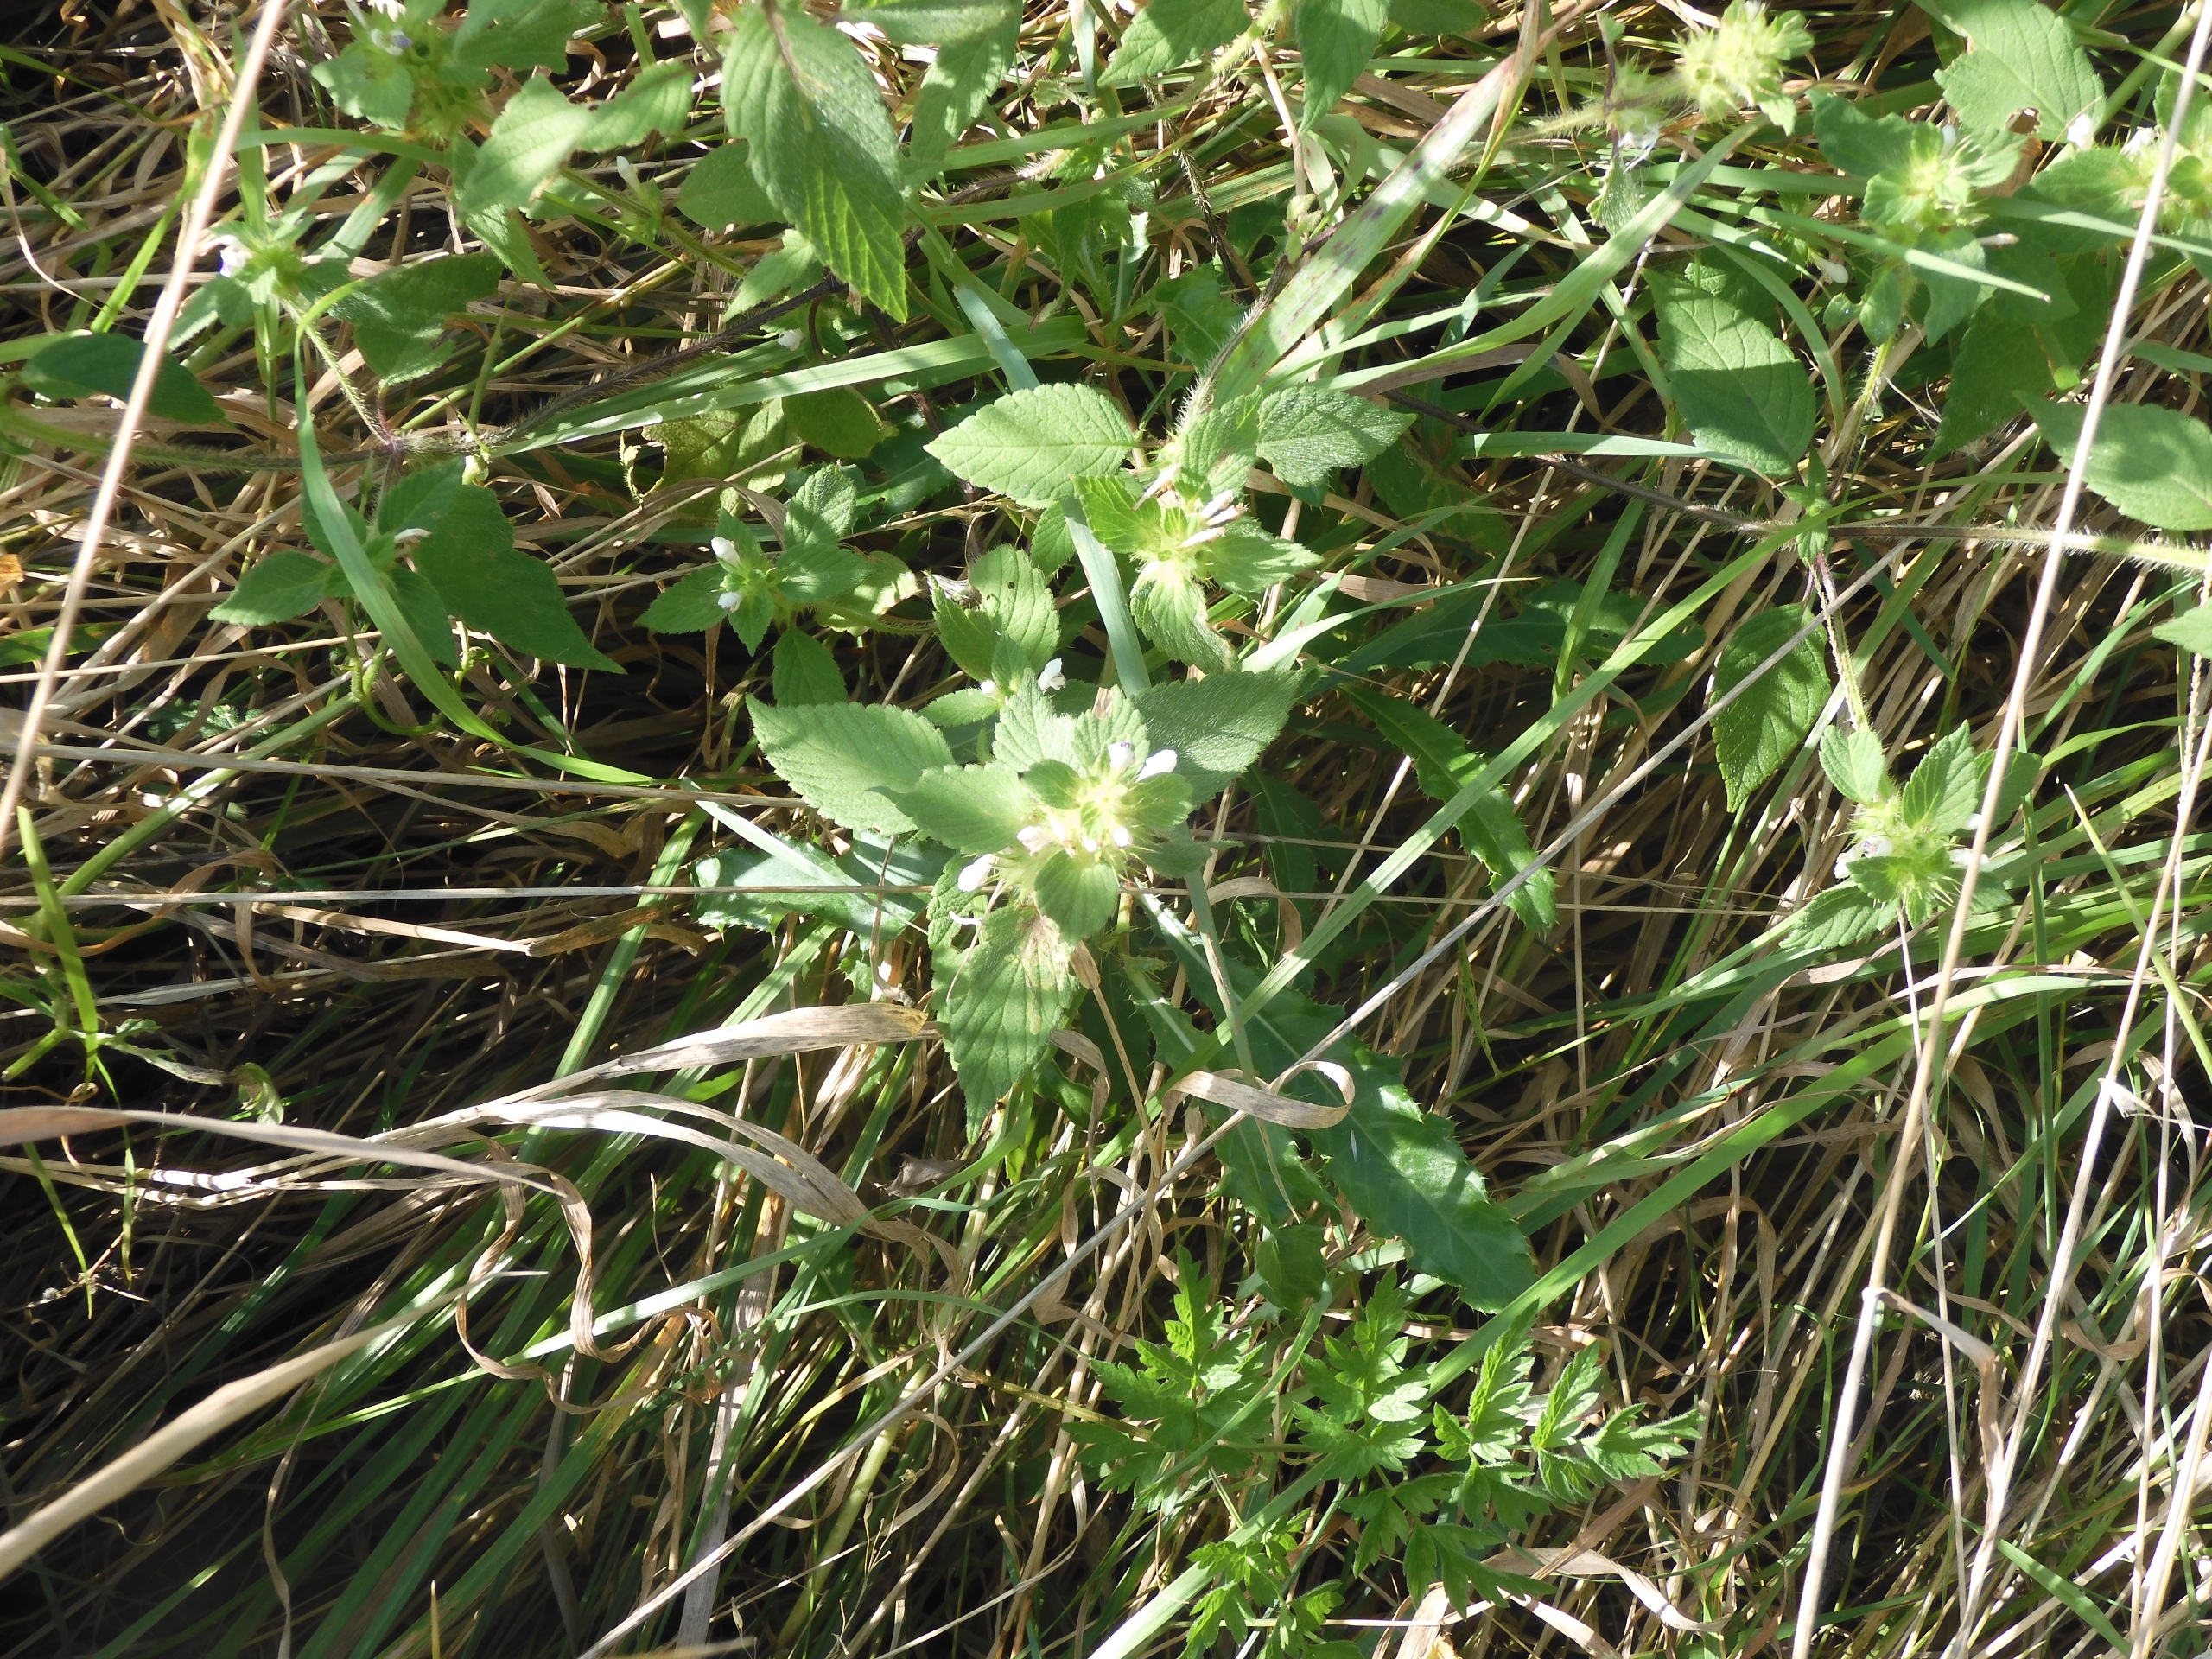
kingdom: Plantae
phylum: Tracheophyta
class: Magnoliopsida
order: Lamiales
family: Lamiaceae
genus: Galeopsis
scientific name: Galeopsis bifida
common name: Skov-hanekro
